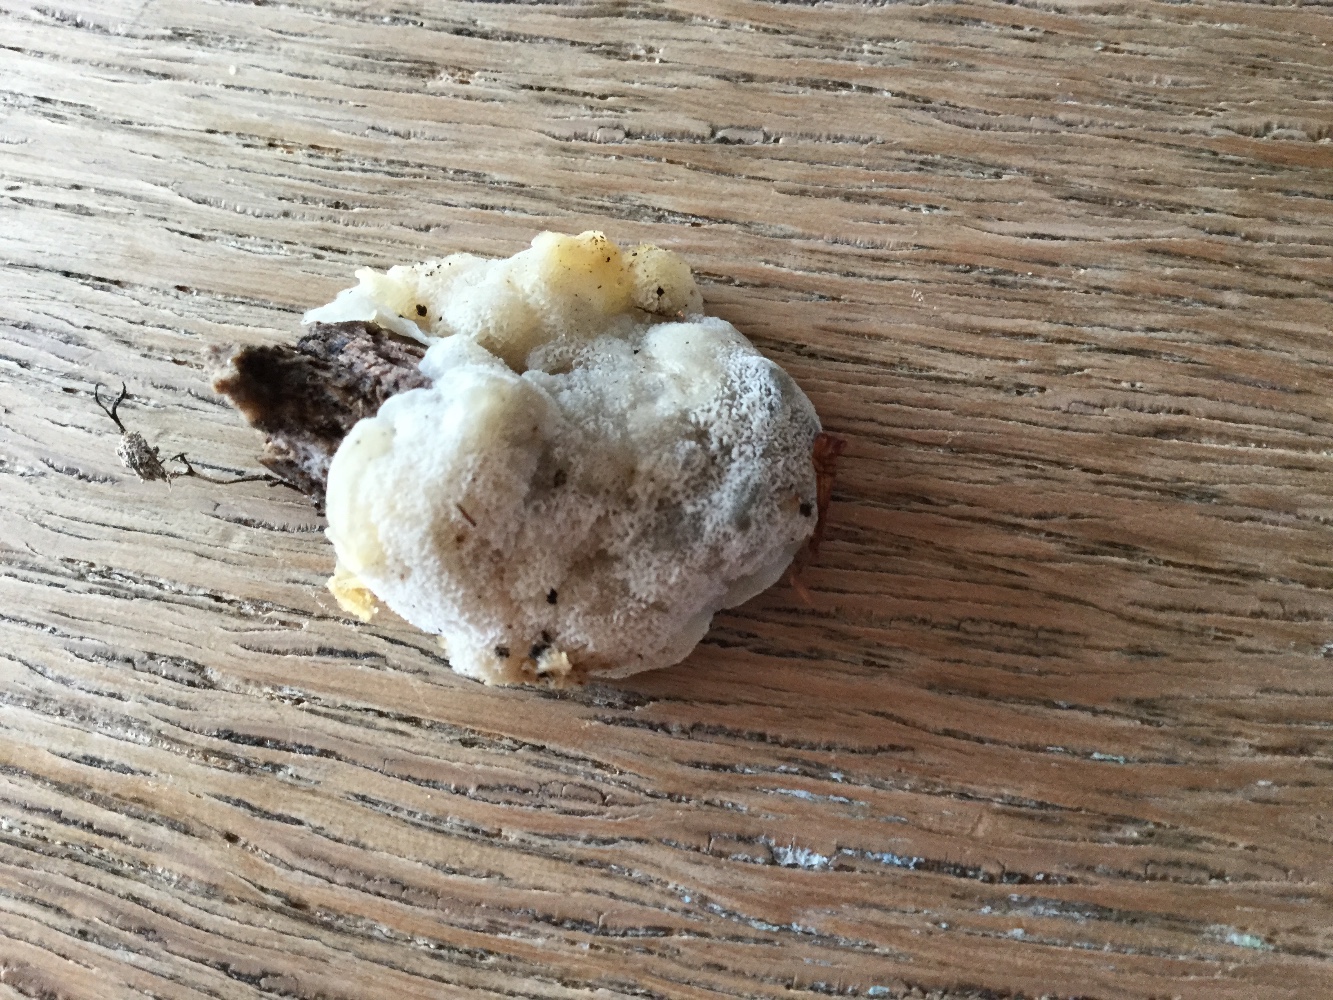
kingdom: Fungi
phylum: Basidiomycota
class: Agaricomycetes
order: Polyporales
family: Meruliaceae
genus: Physisporinus
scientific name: Physisporinus vitreus
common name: mastesvamp
